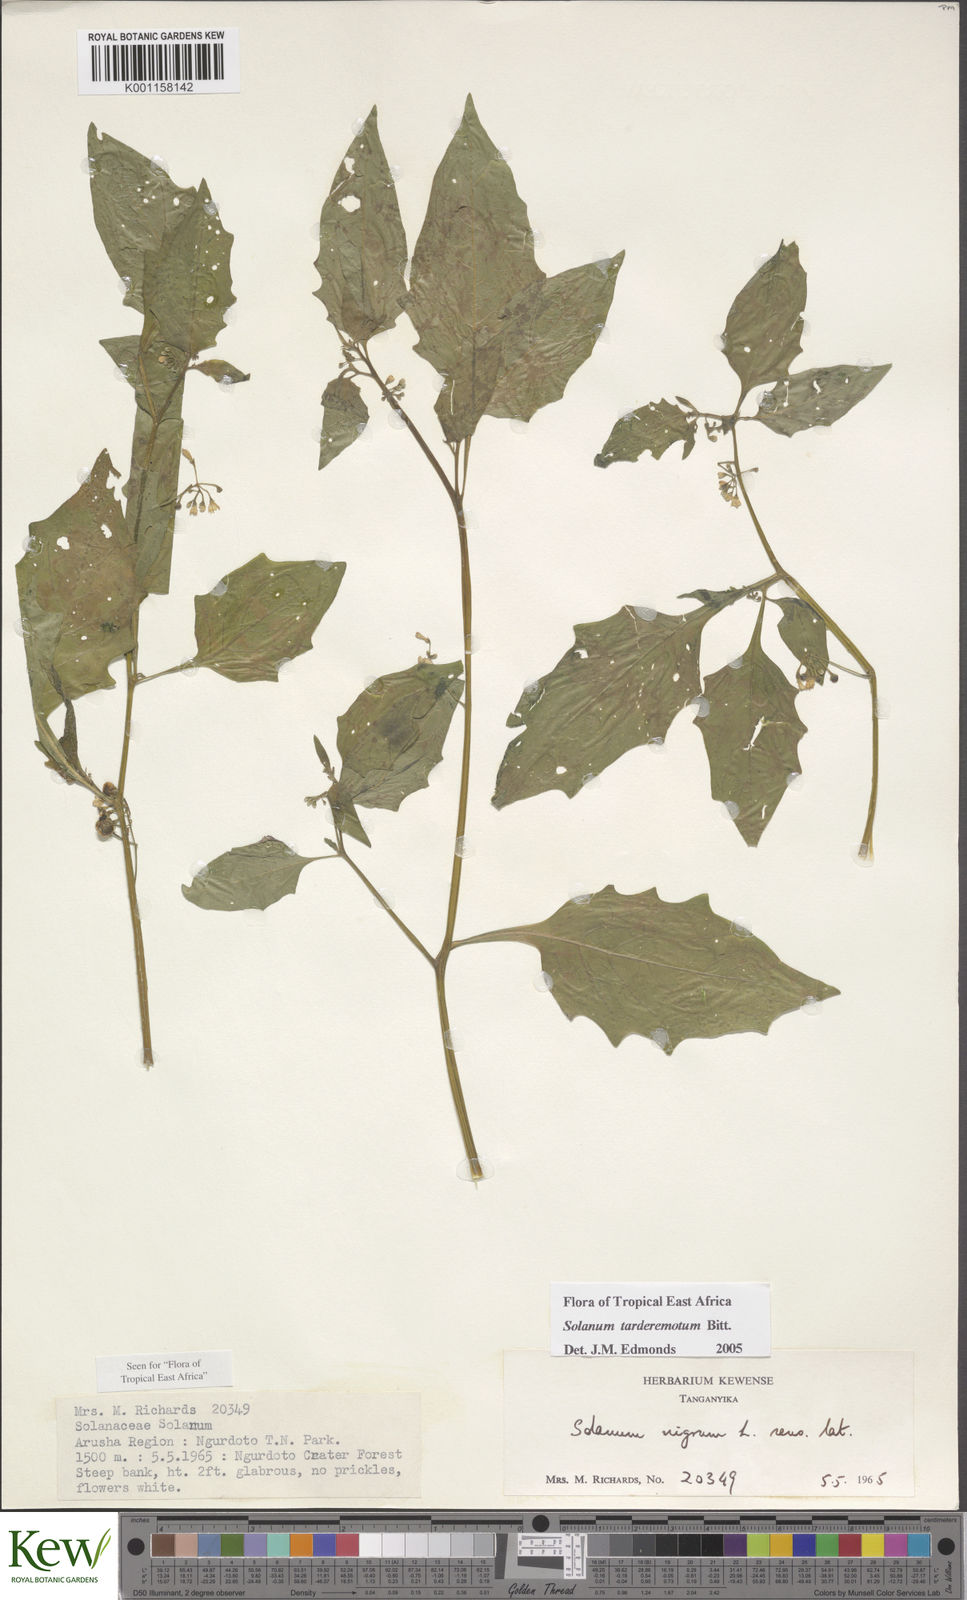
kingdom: Plantae
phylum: Tracheophyta
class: Magnoliopsida
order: Solanales
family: Solanaceae
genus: Solanum
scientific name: Solanum tarderemotum
